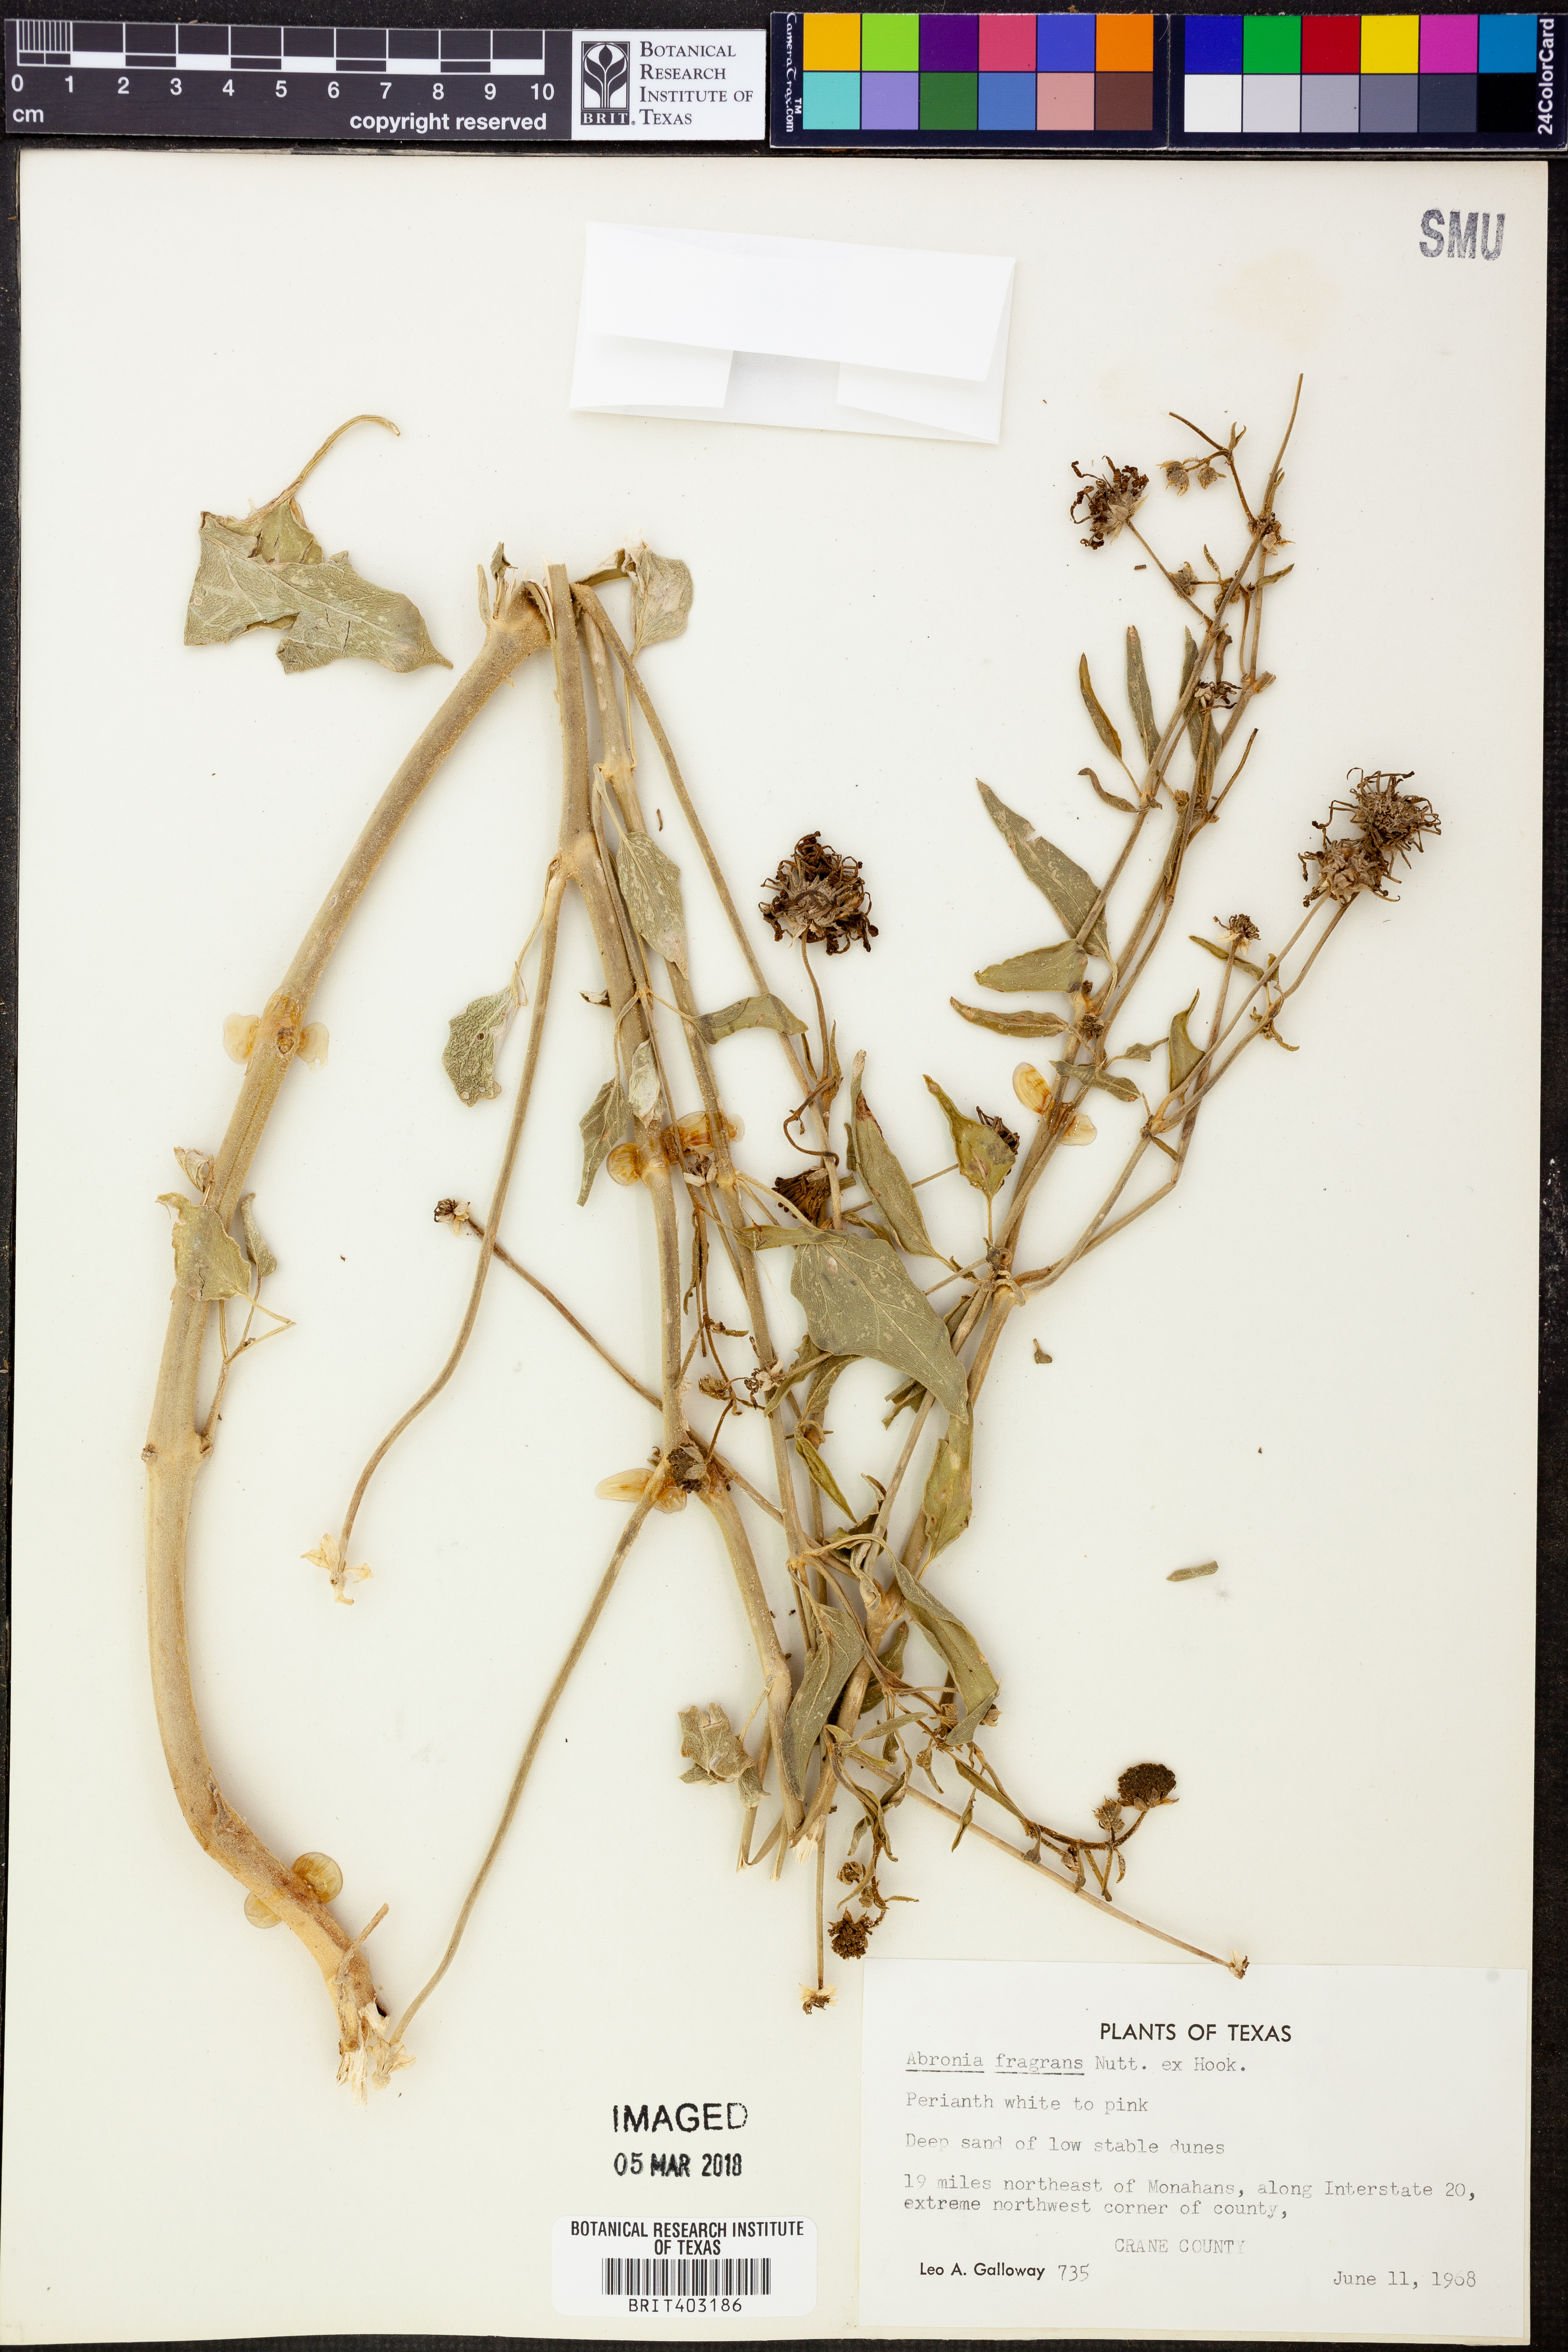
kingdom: Plantae
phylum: Tracheophyta
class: Magnoliopsida
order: Caryophyllales
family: Nyctaginaceae
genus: Abronia
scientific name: Abronia fragrans
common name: Fragrant sand-verbena
